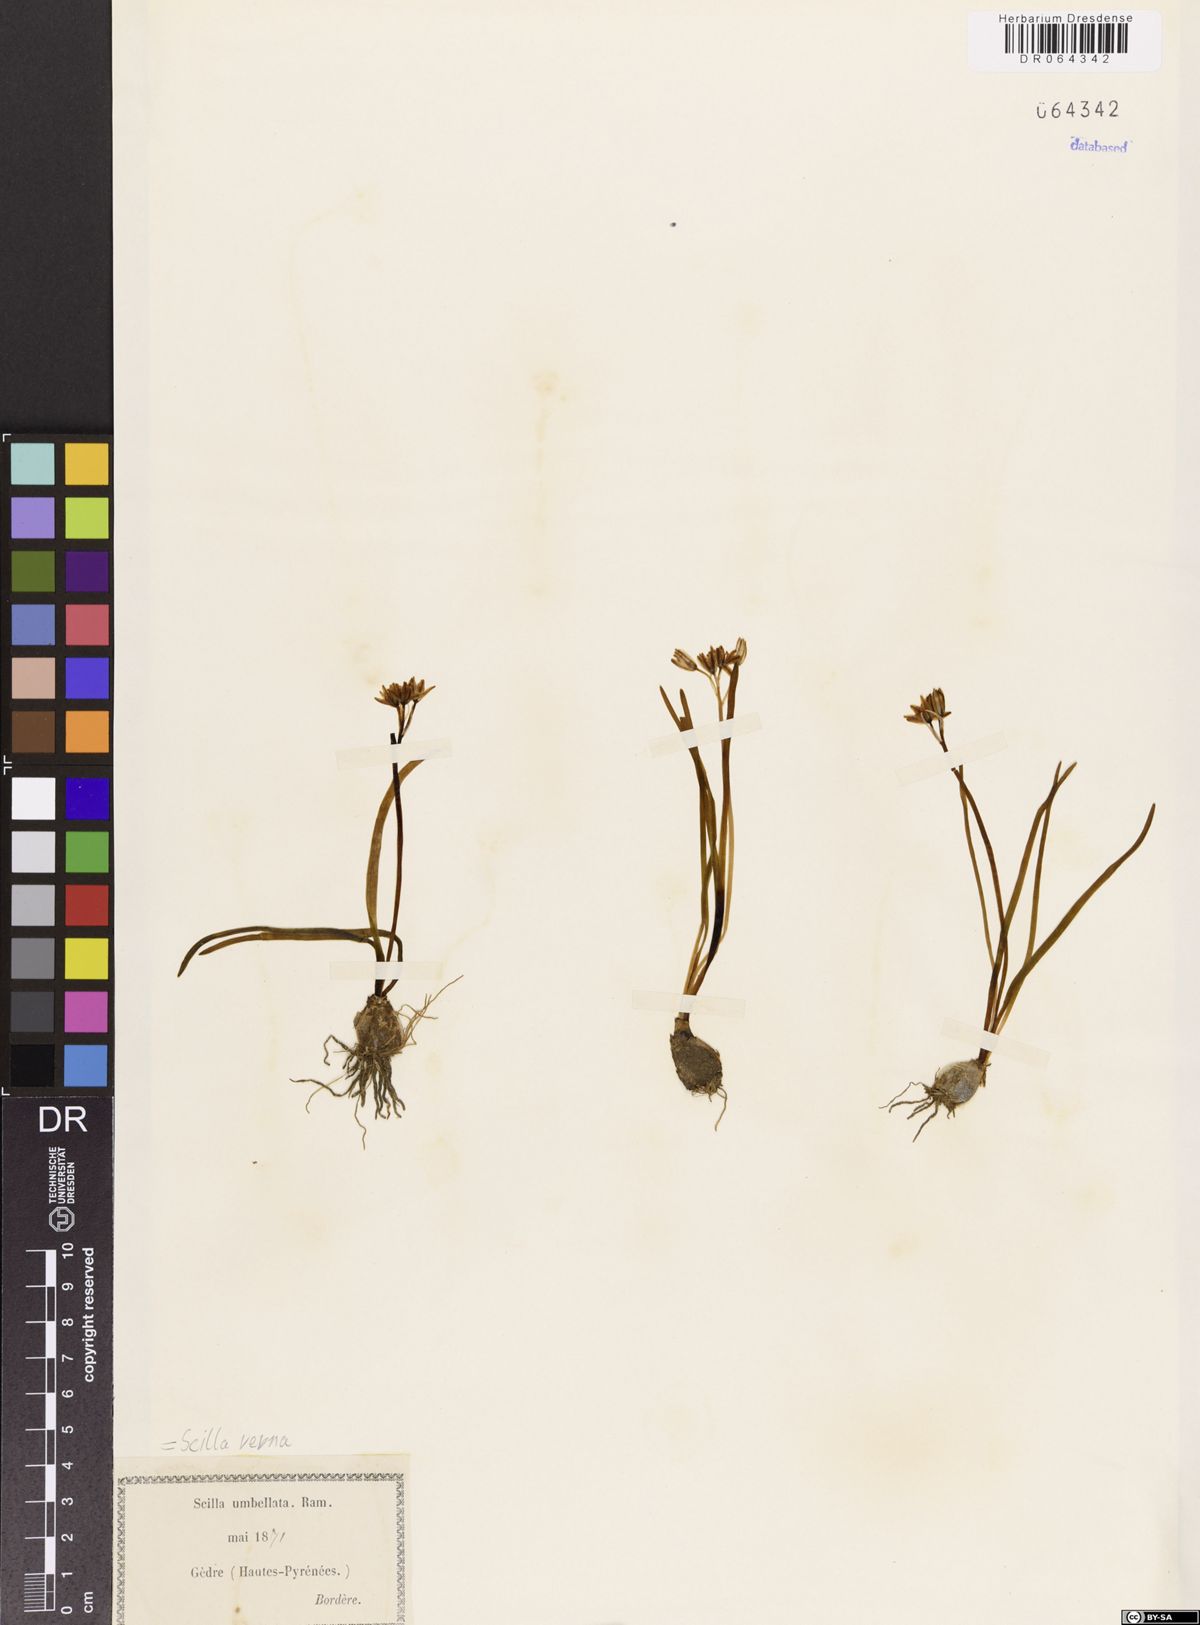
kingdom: Plantae
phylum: Tracheophyta
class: Liliopsida
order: Asparagales
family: Asparagaceae
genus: Scilla
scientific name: Scilla verna
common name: Spring squill
